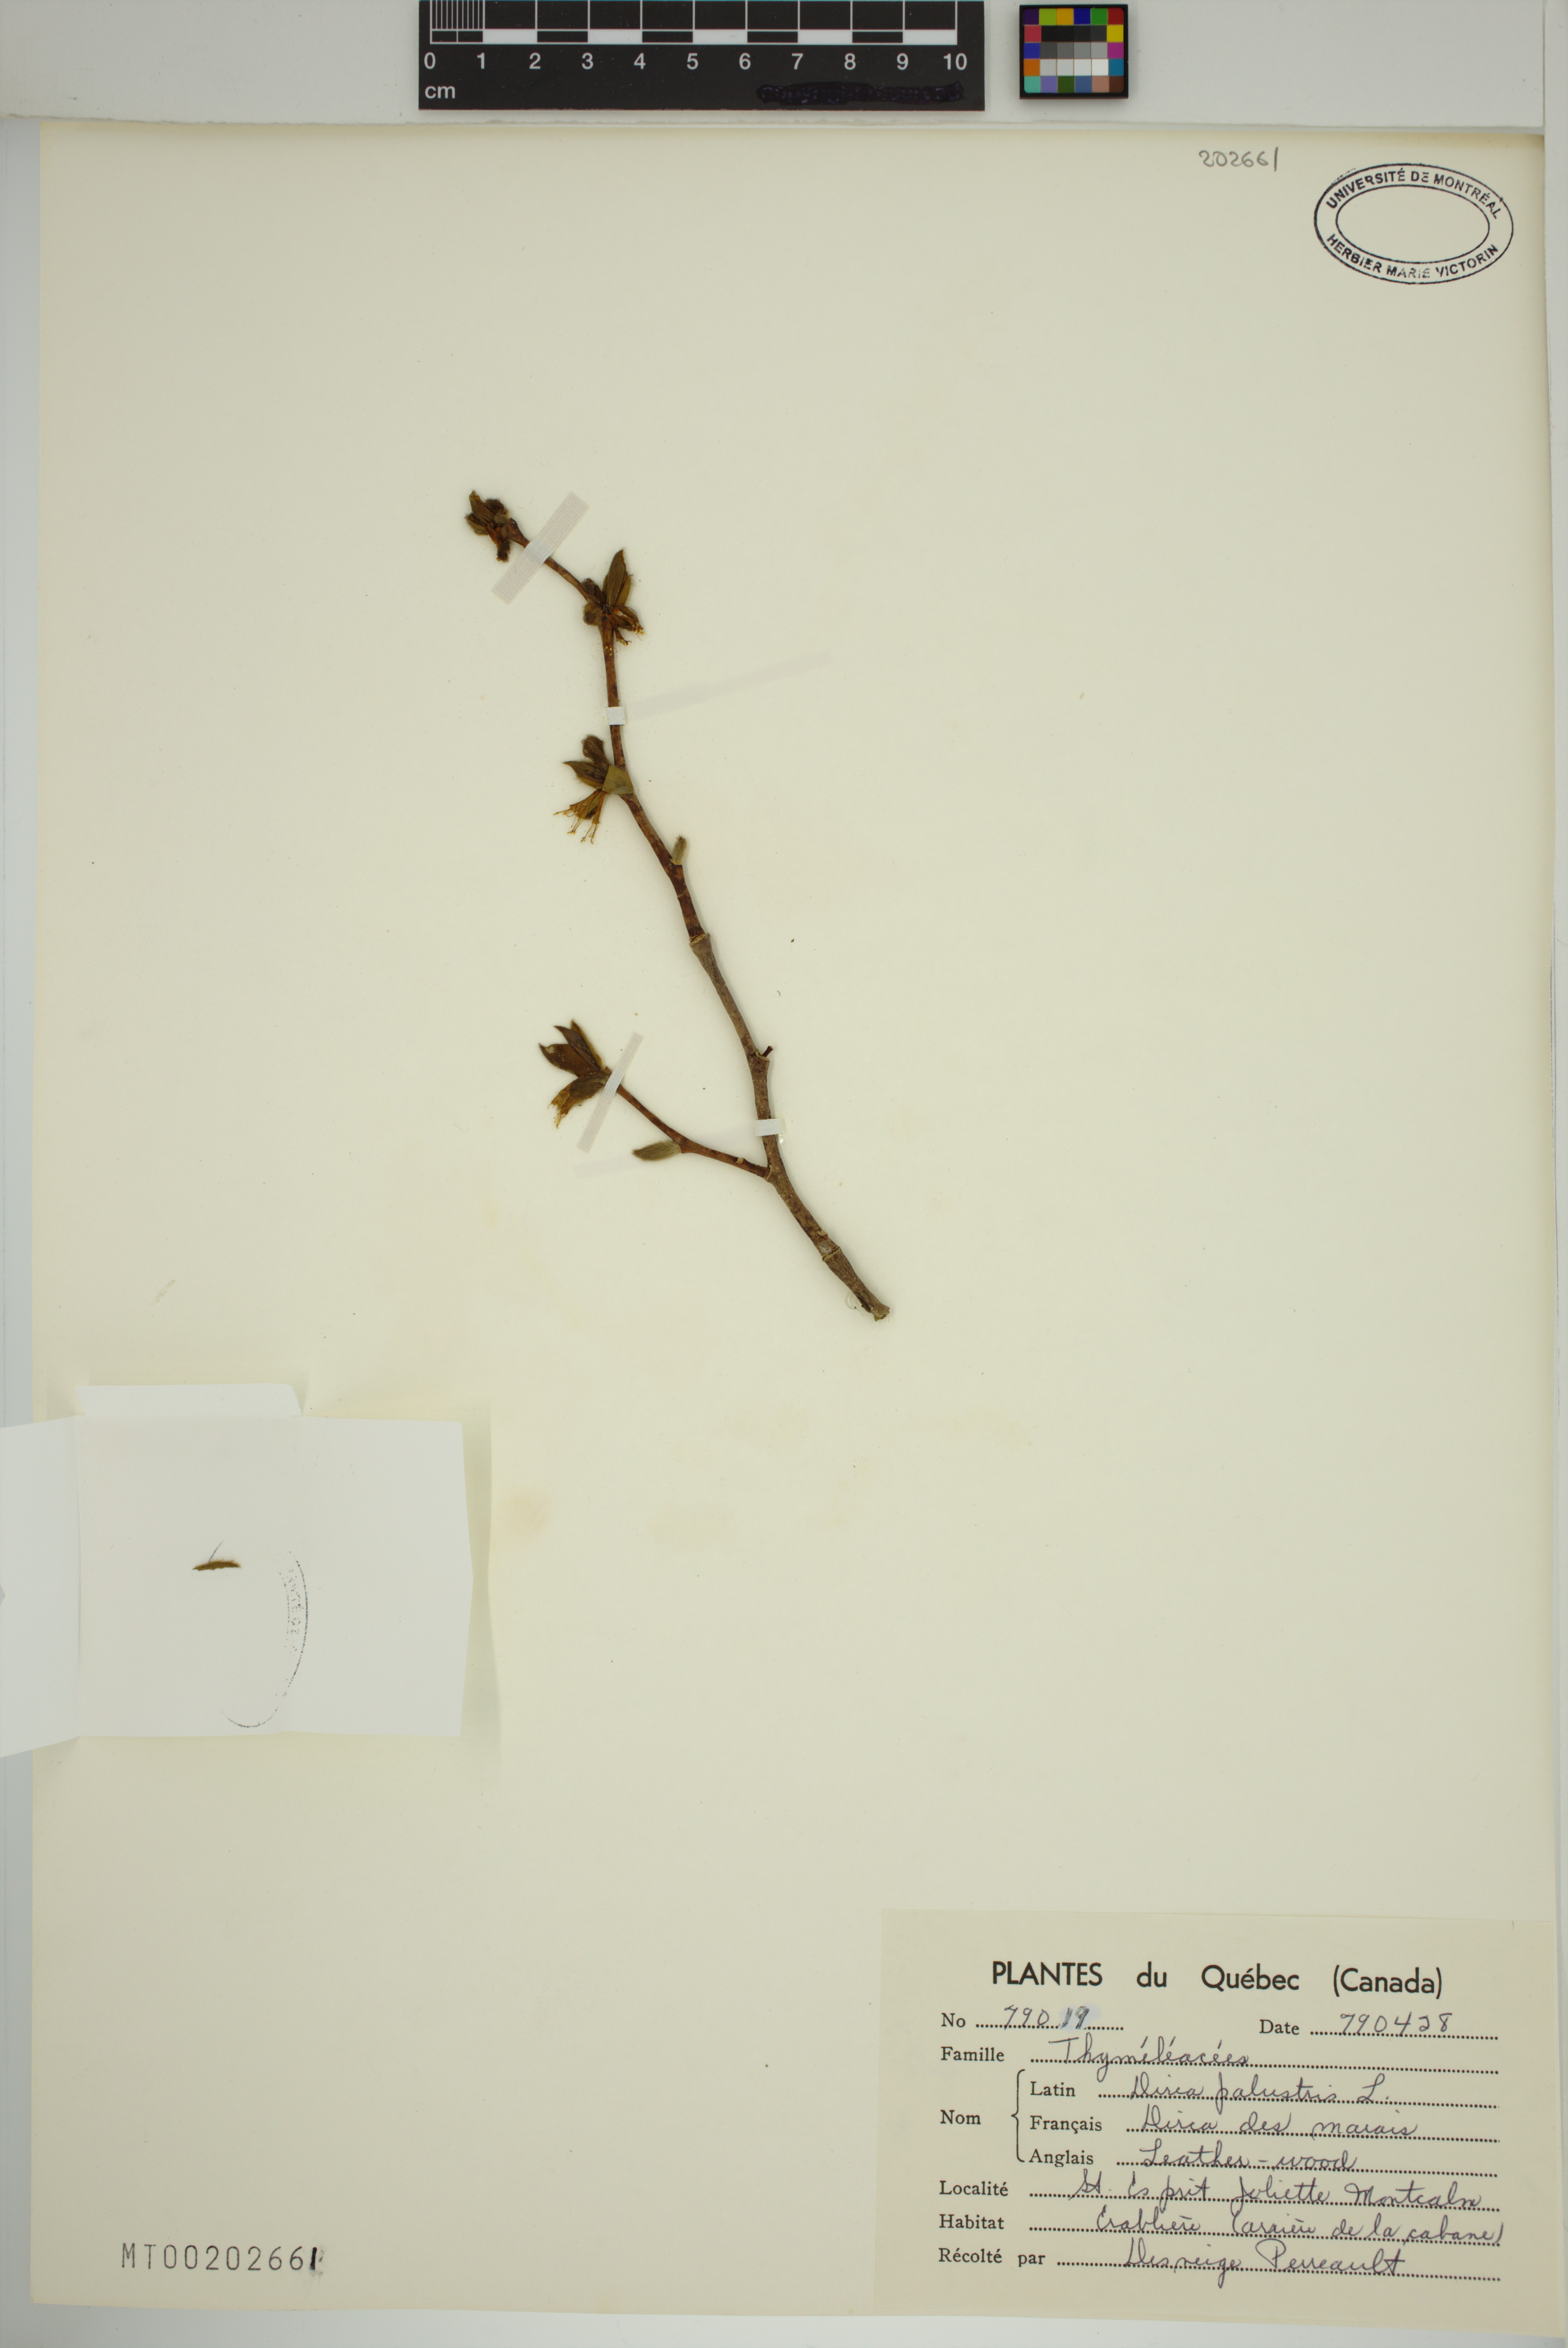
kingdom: Plantae
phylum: Tracheophyta
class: Magnoliopsida
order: Malvales
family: Thymelaeaceae
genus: Dirca
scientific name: Dirca palustris
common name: Leatherwood
